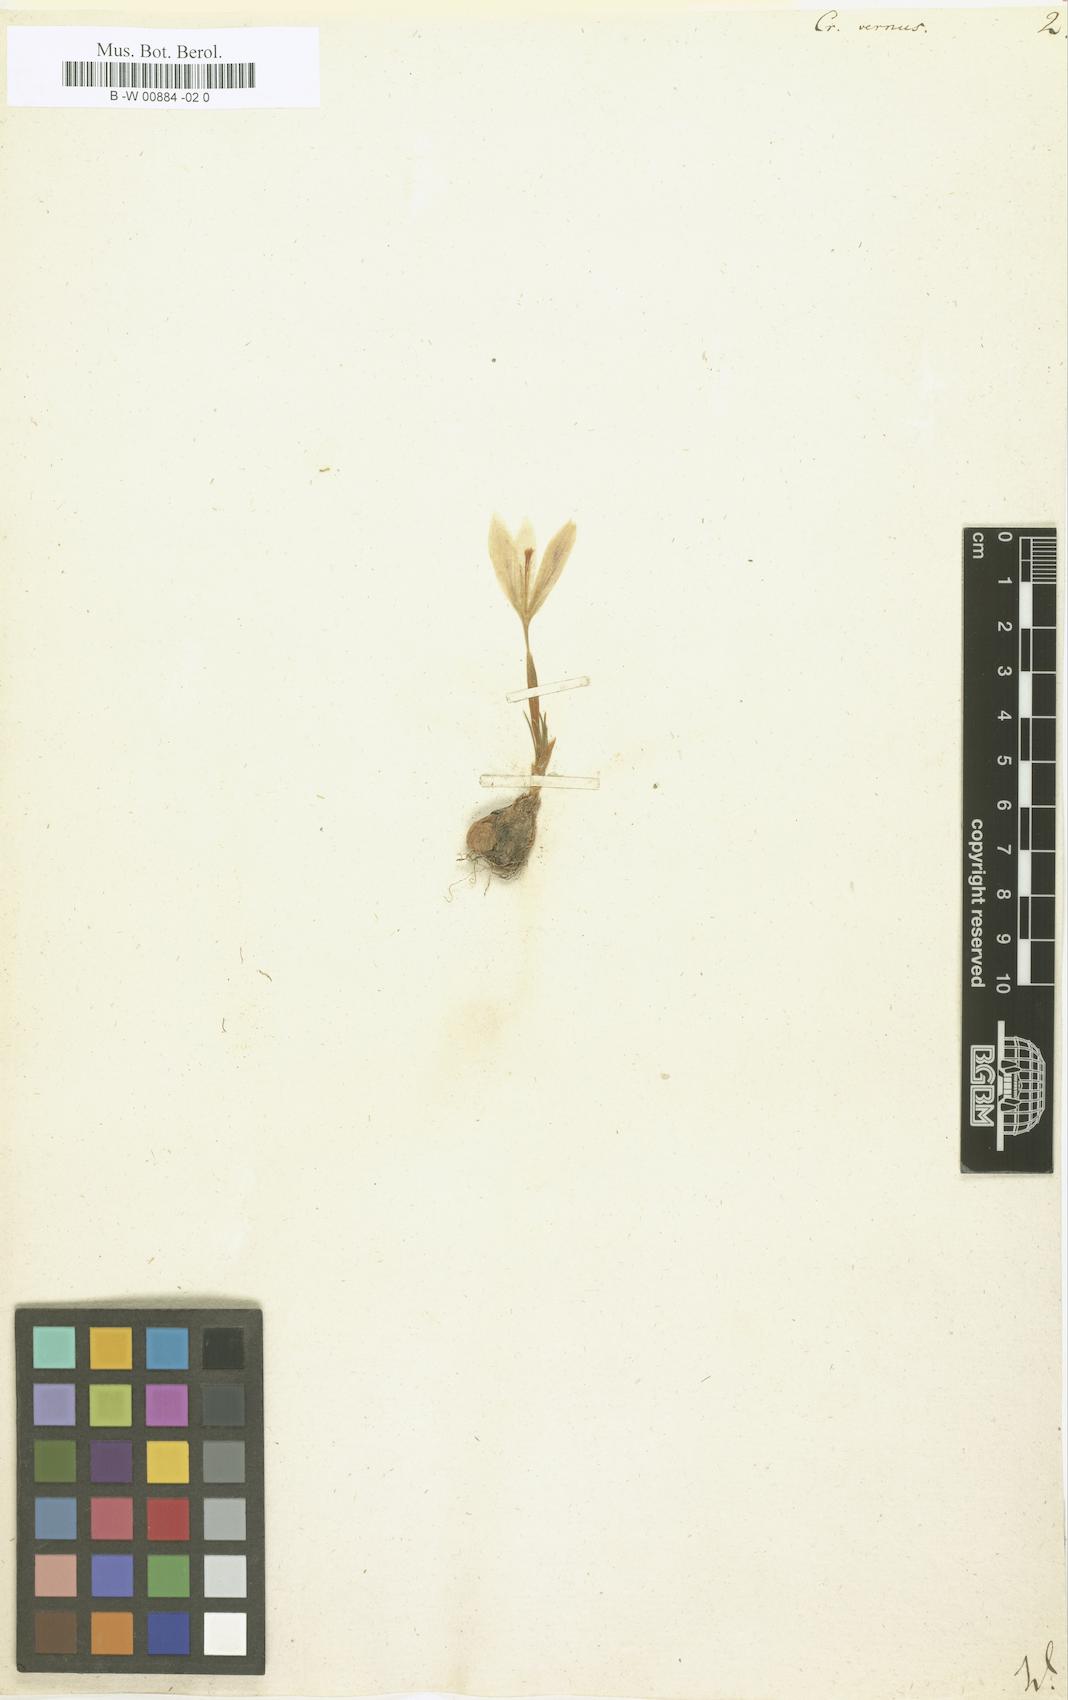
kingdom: Plantae
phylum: Tracheophyta
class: Liliopsida
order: Asparagales
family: Iridaceae
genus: Crocus
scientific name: Crocus vernus
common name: Spring crocus
